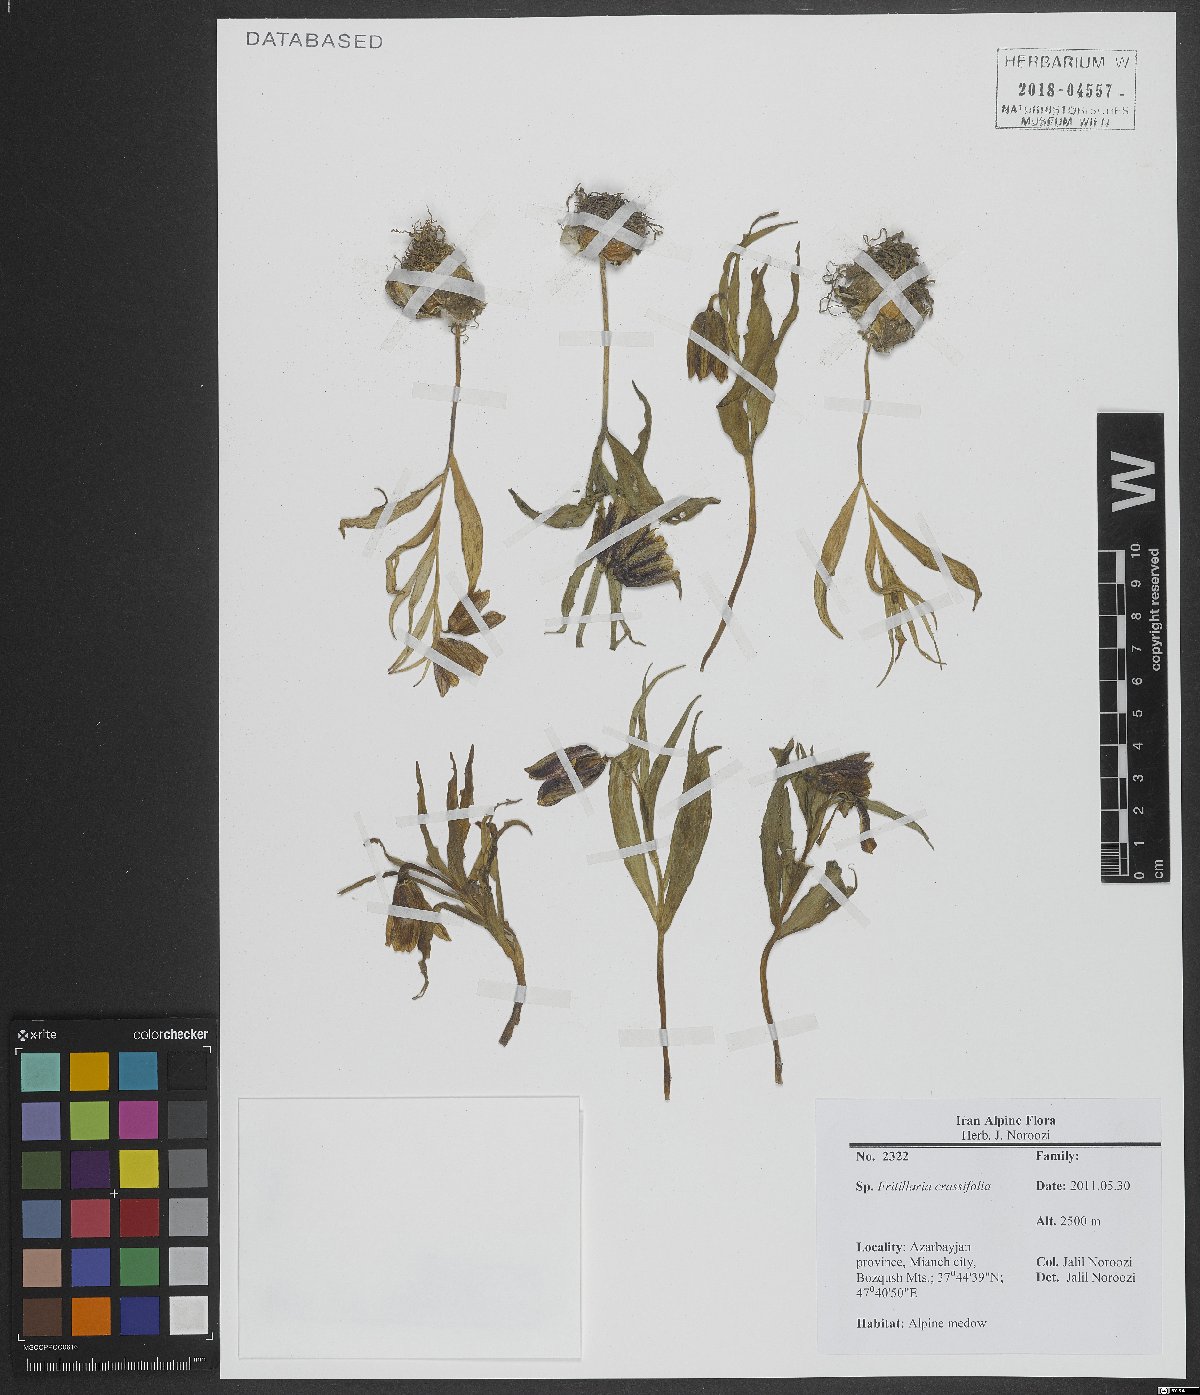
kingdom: Plantae
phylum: Tracheophyta
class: Liliopsida
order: Liliales
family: Liliaceae
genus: Fritillaria
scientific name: Fritillaria crassifolia
